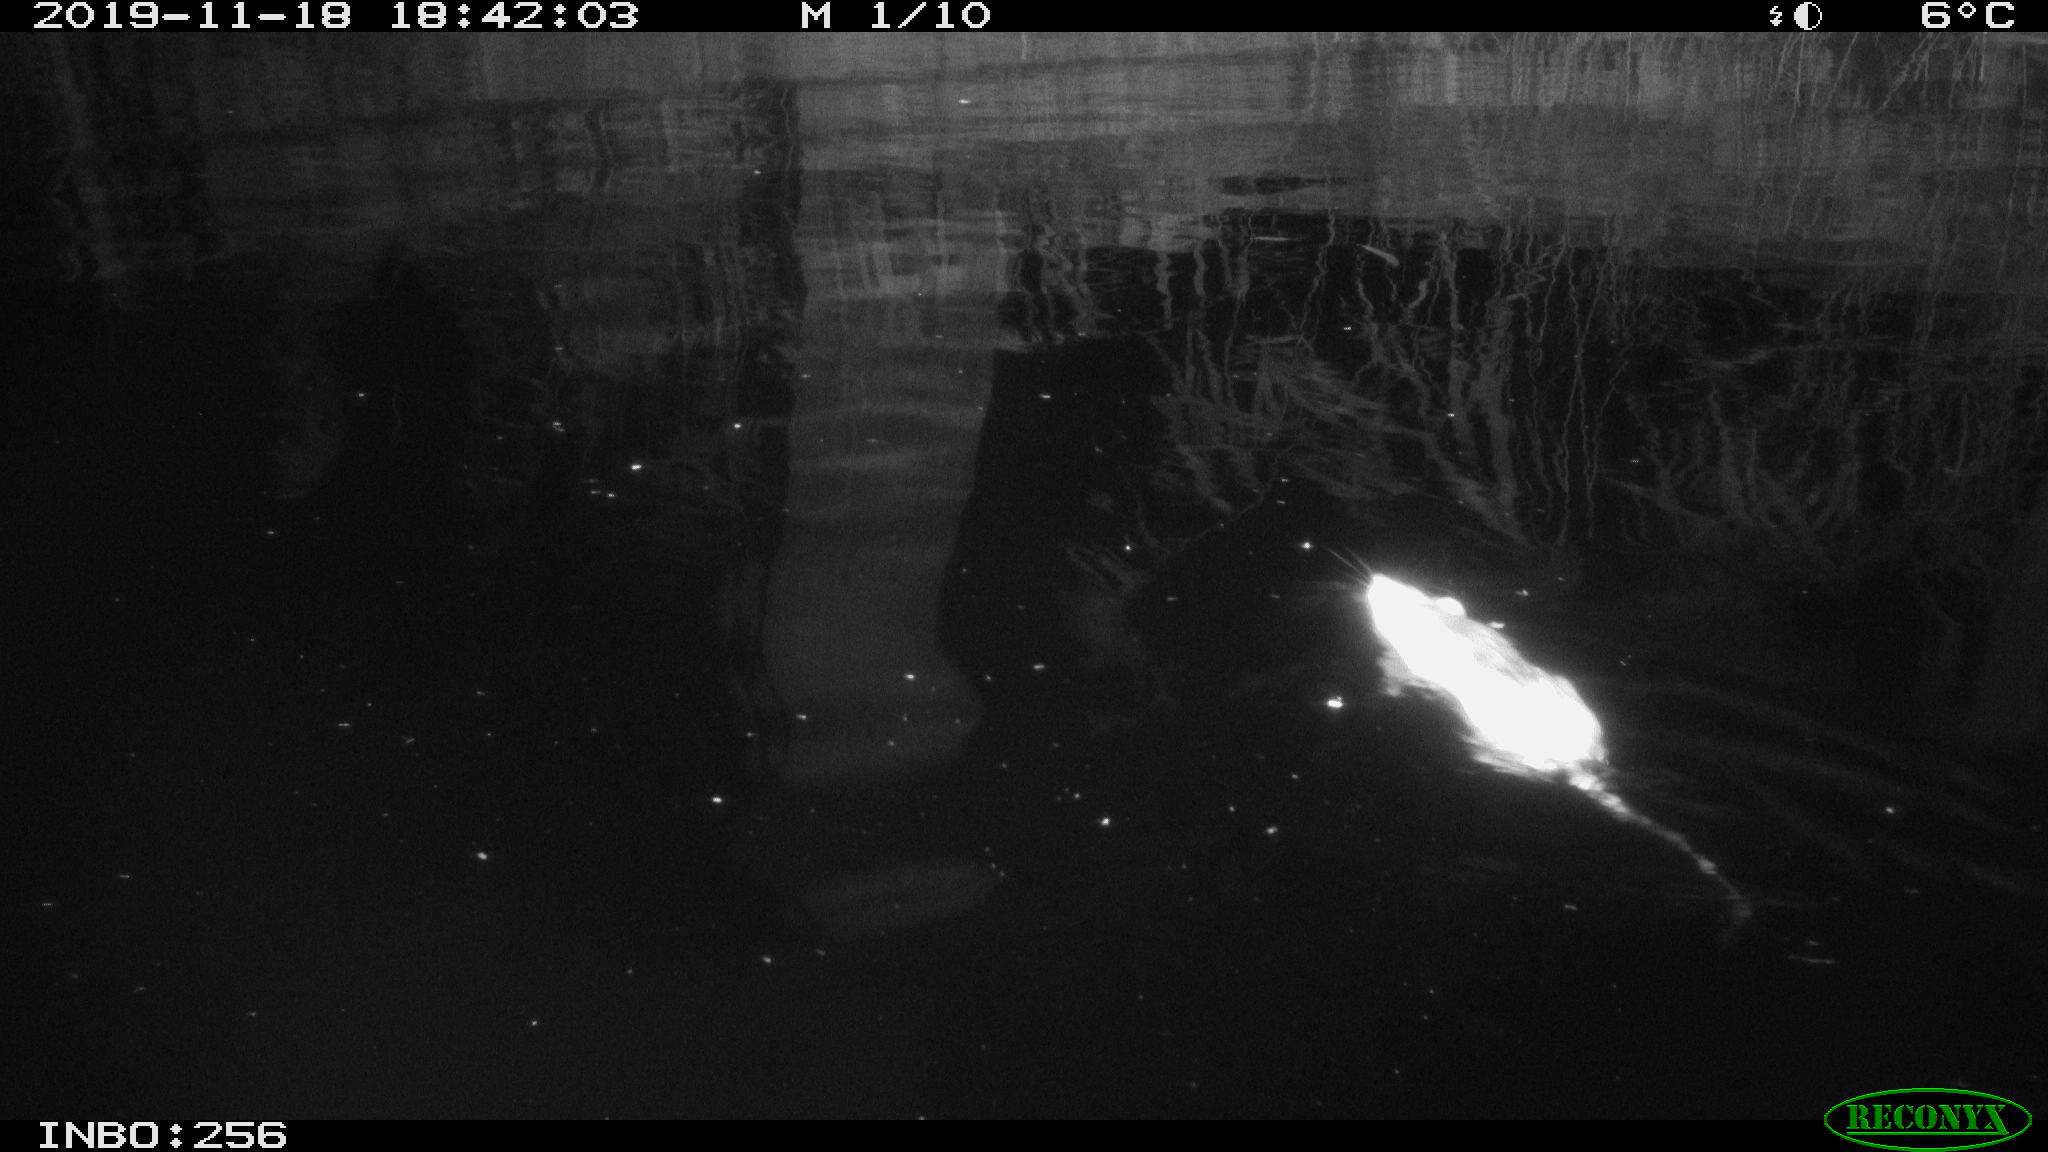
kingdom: Animalia
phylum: Chordata
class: Mammalia
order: Rodentia
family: Muridae
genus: Rattus
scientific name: Rattus norvegicus
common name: Brown rat
